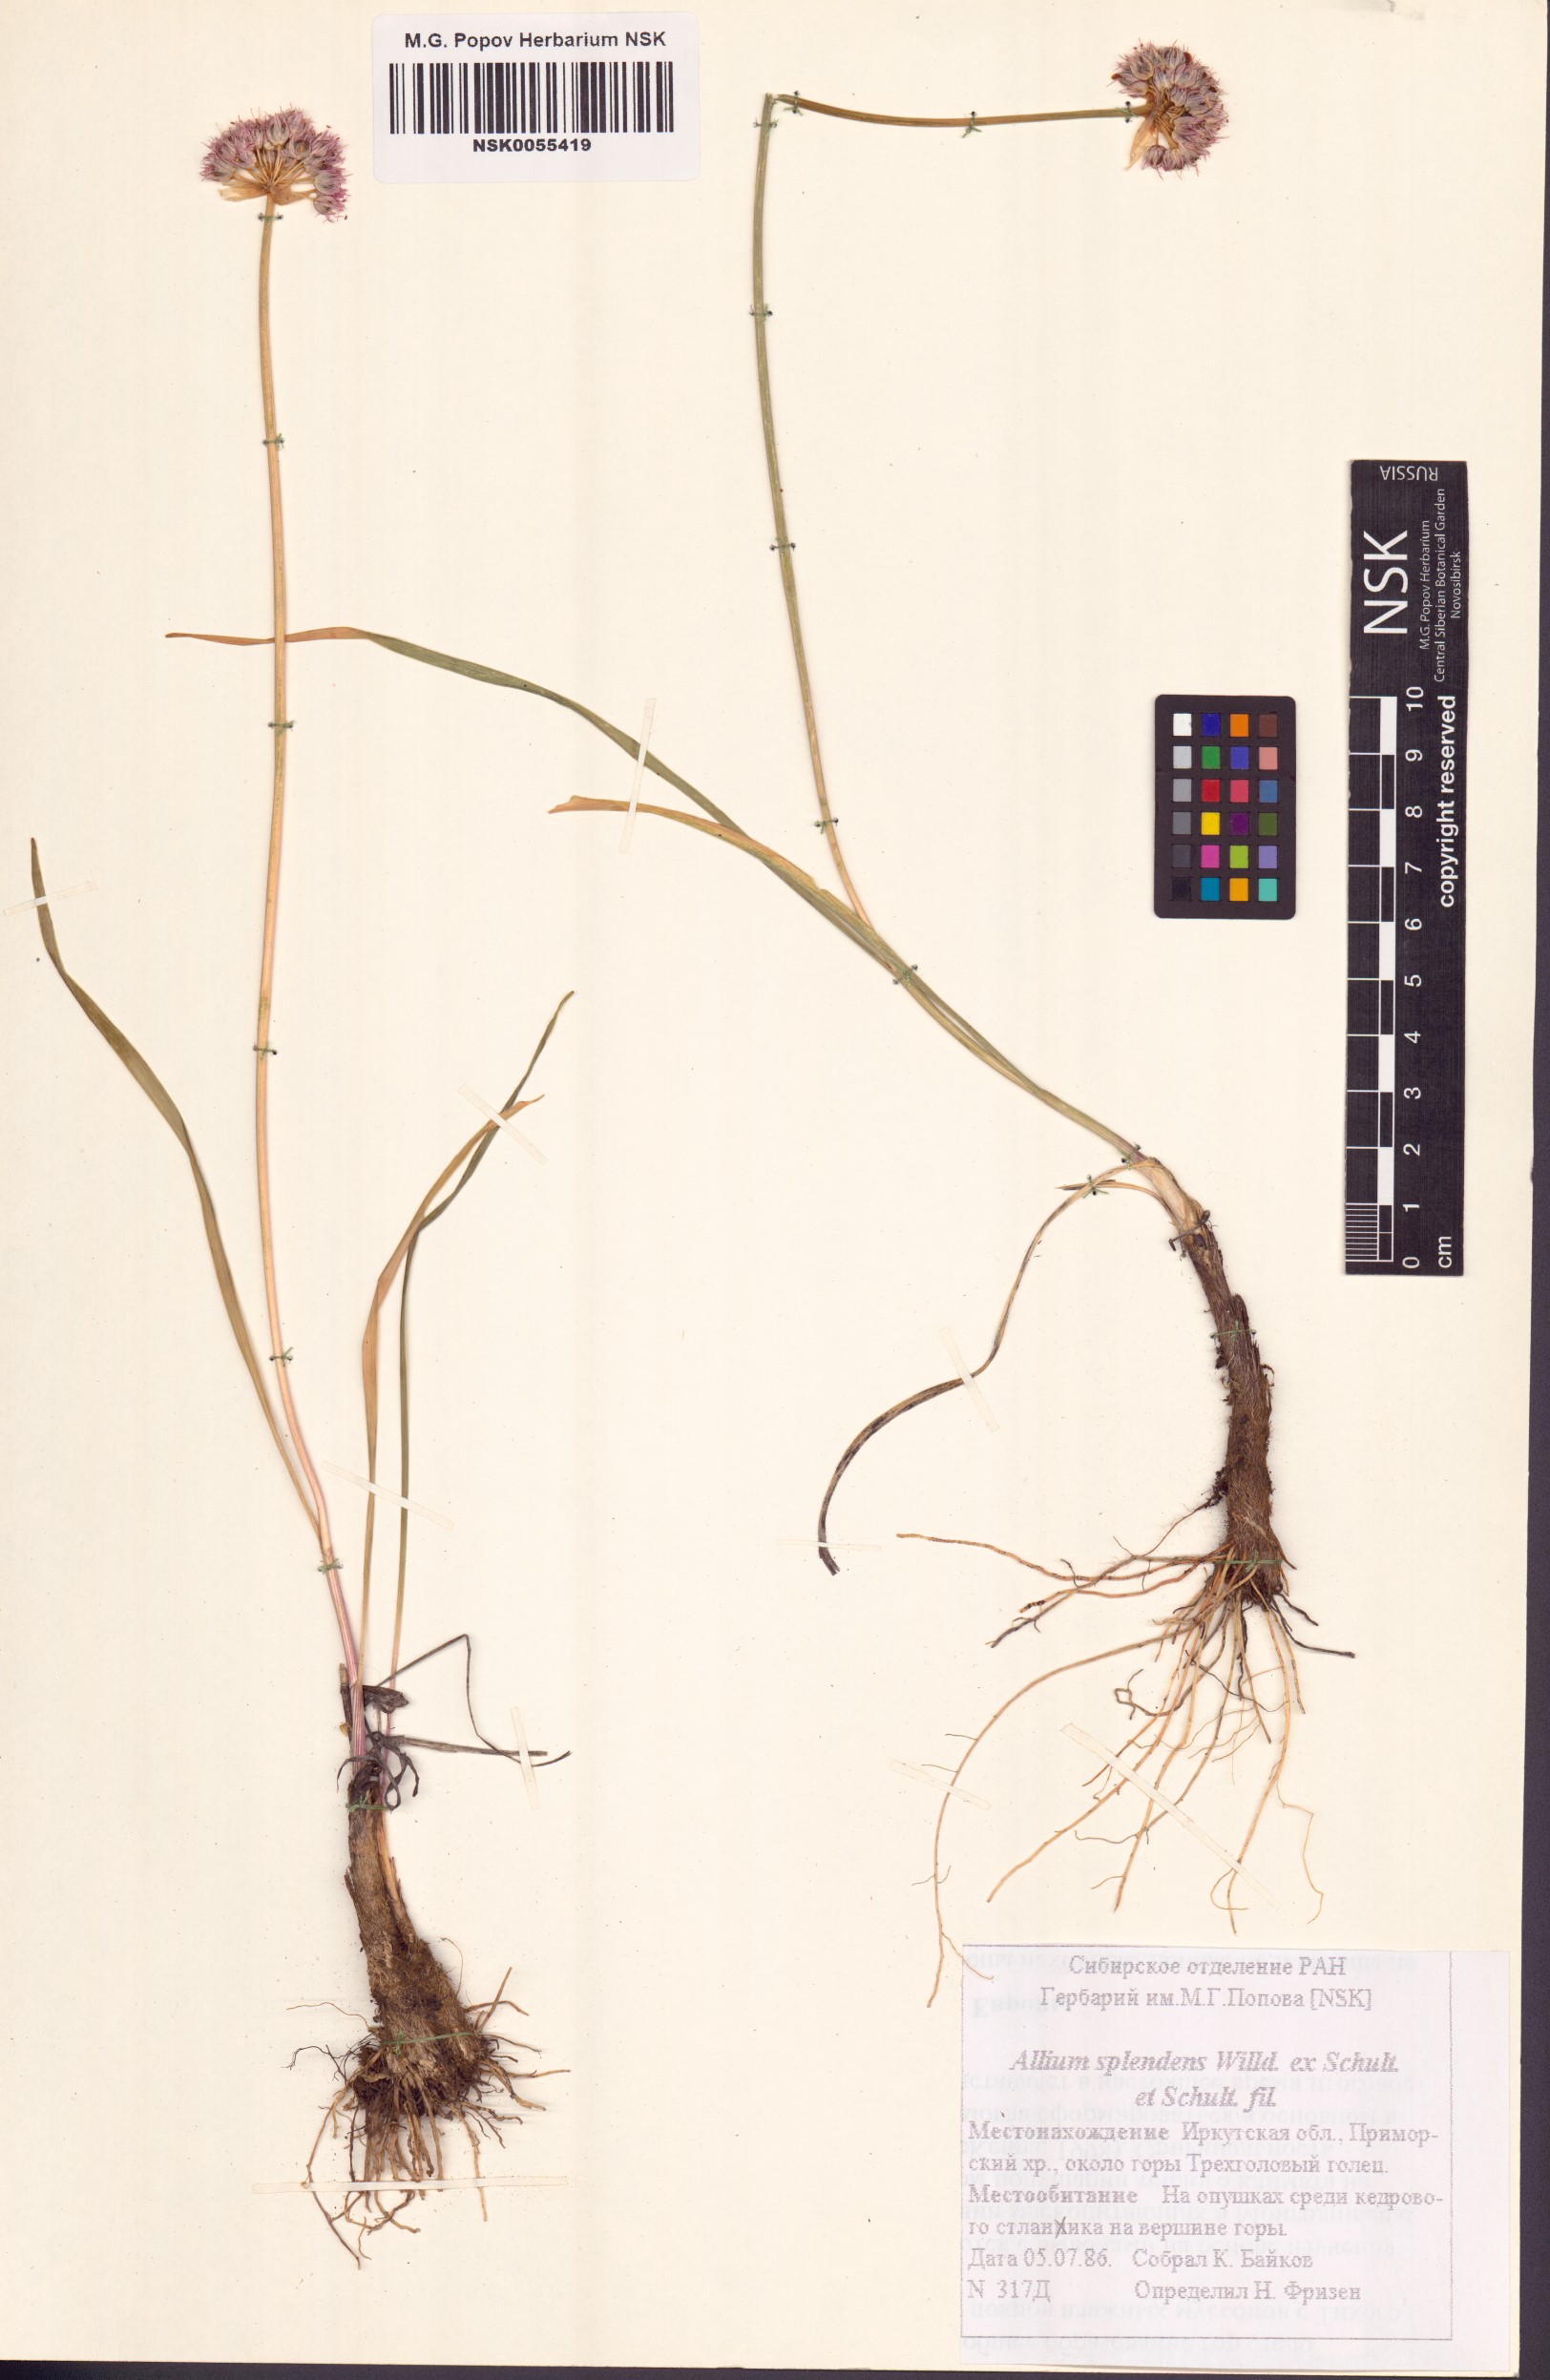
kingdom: Plantae
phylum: Tracheophyta
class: Liliopsida
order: Asparagales
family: Amaryllidaceae
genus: Allium
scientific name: Allium splendens
